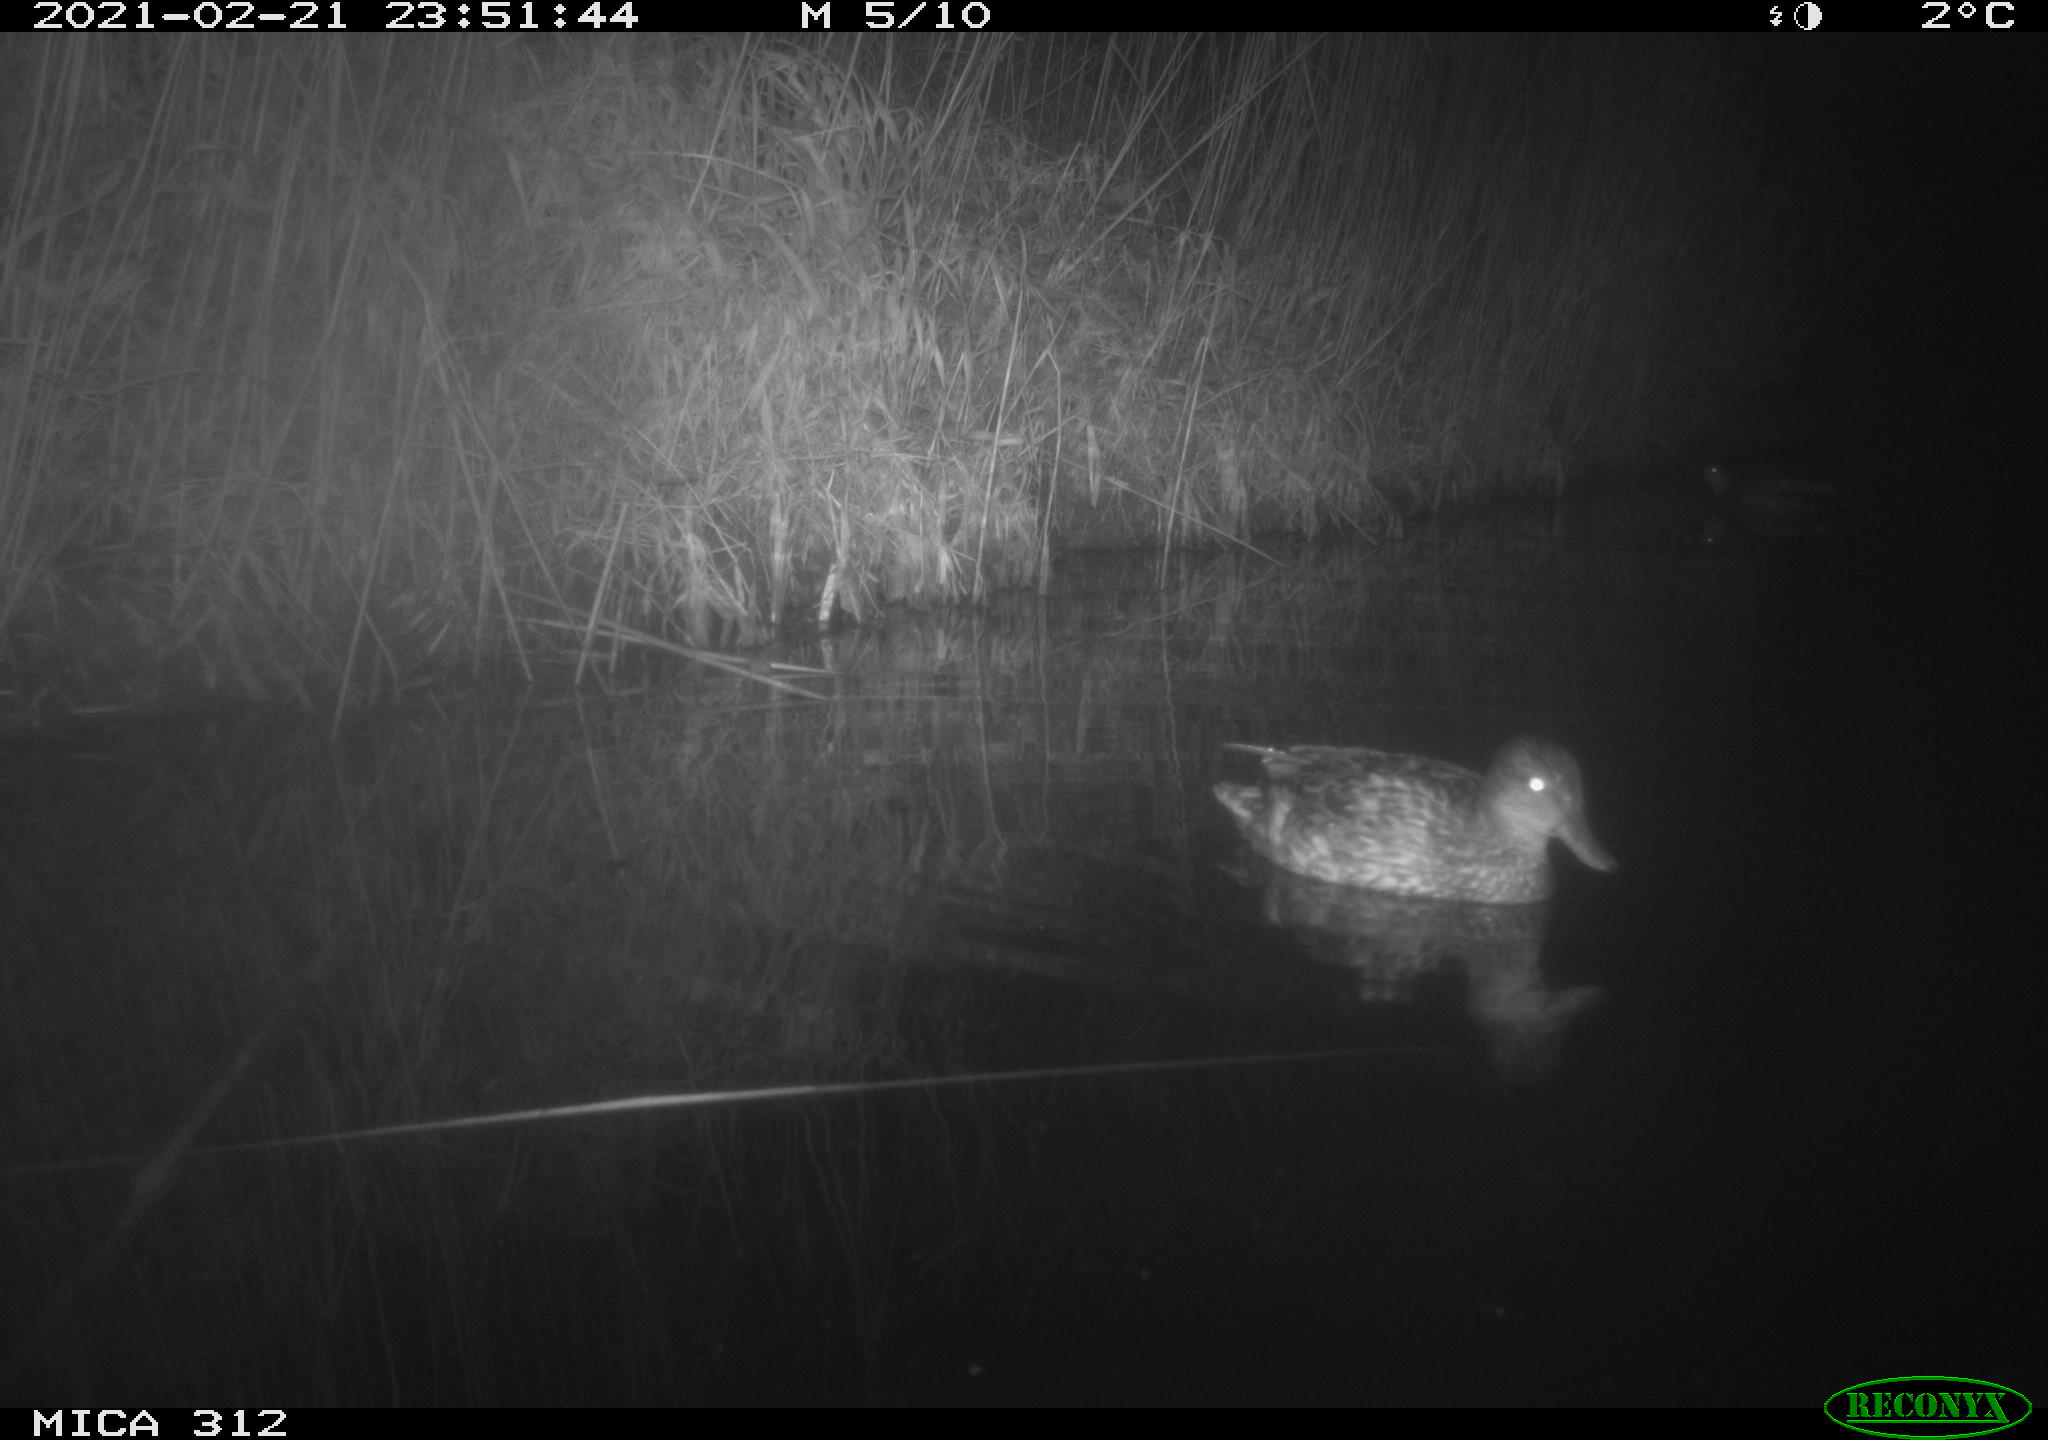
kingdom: Animalia
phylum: Chordata
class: Aves
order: Anseriformes
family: Anatidae
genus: Anas
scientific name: Anas crecca
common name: Eurasian teal
